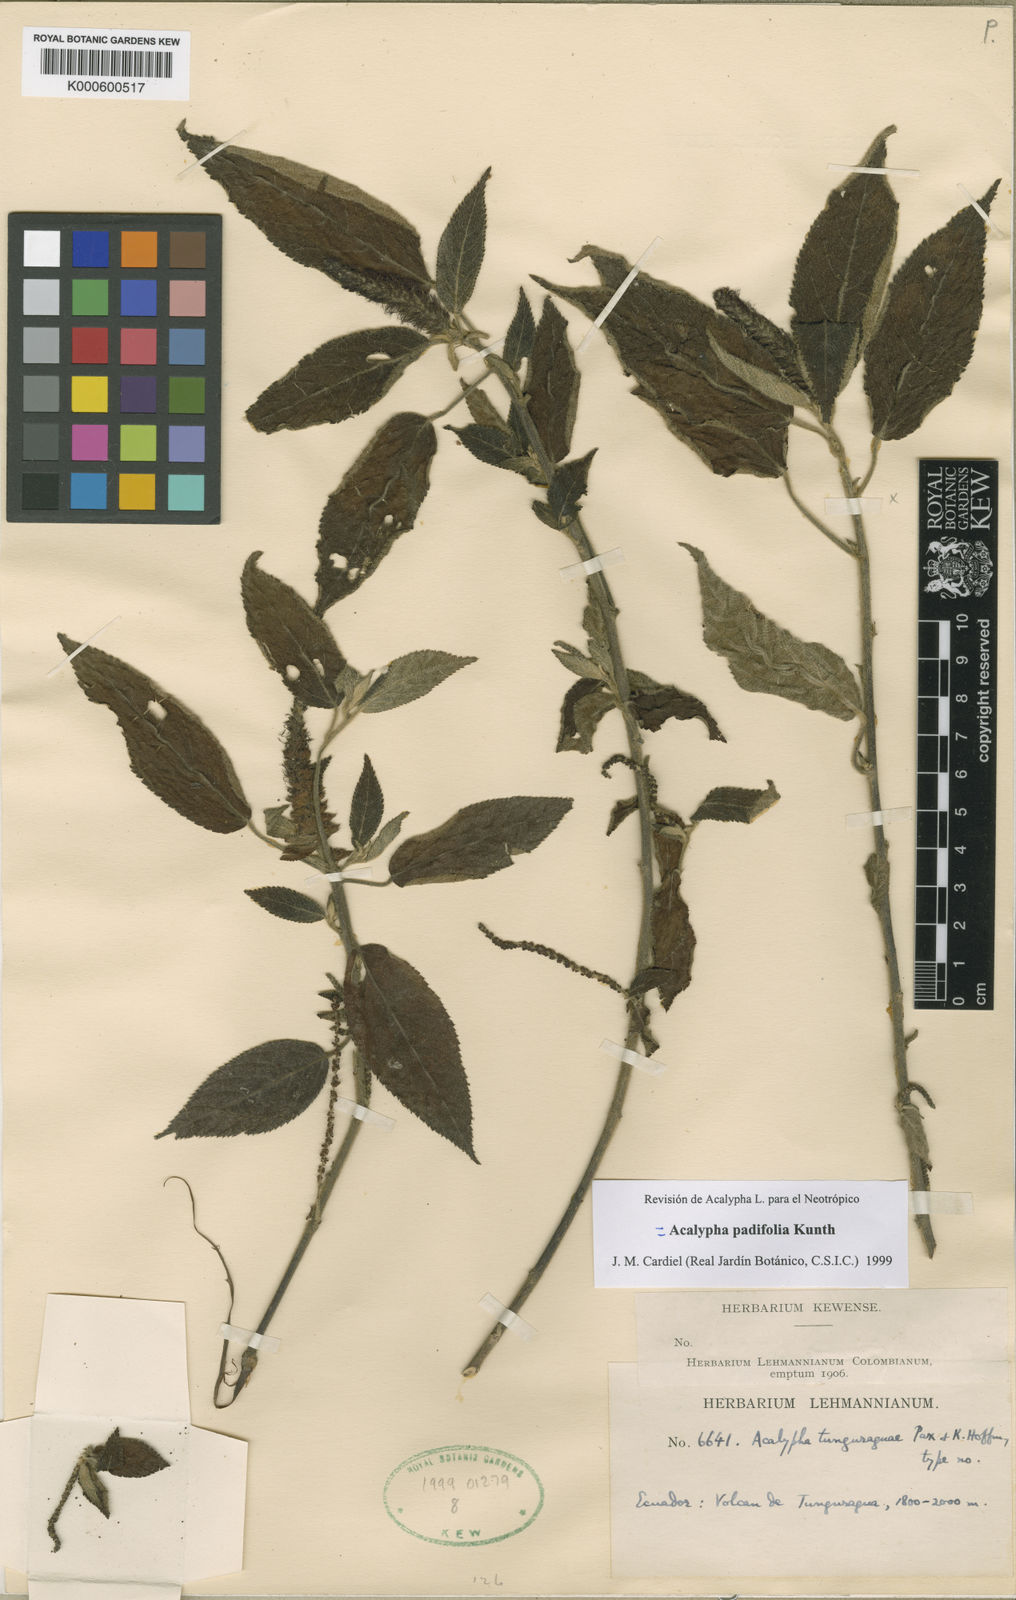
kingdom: Plantae
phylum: Tracheophyta
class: Magnoliopsida
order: Malpighiales
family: Euphorbiaceae
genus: Acalypha
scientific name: Acalypha padifolia
